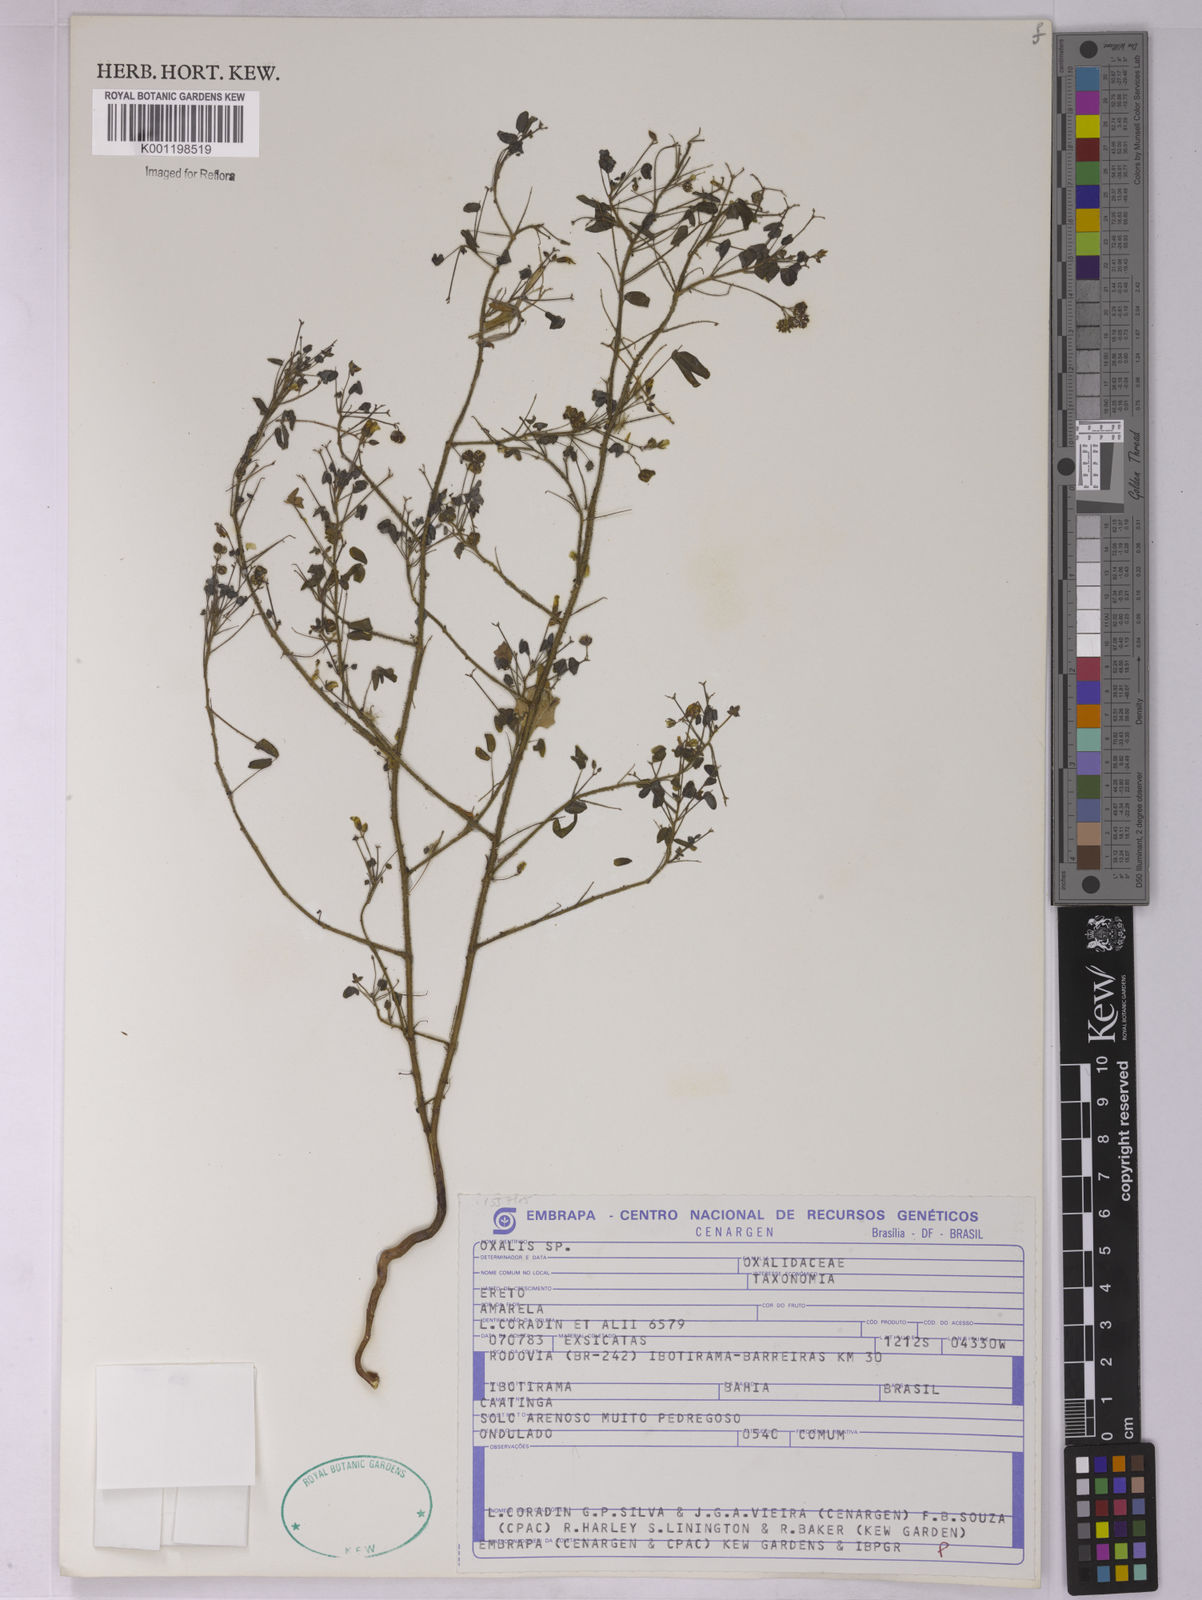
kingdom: Plantae
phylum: Tracheophyta
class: Magnoliopsida
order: Oxalidales
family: Oxalidaceae
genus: Oxalis
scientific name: Oxalis
